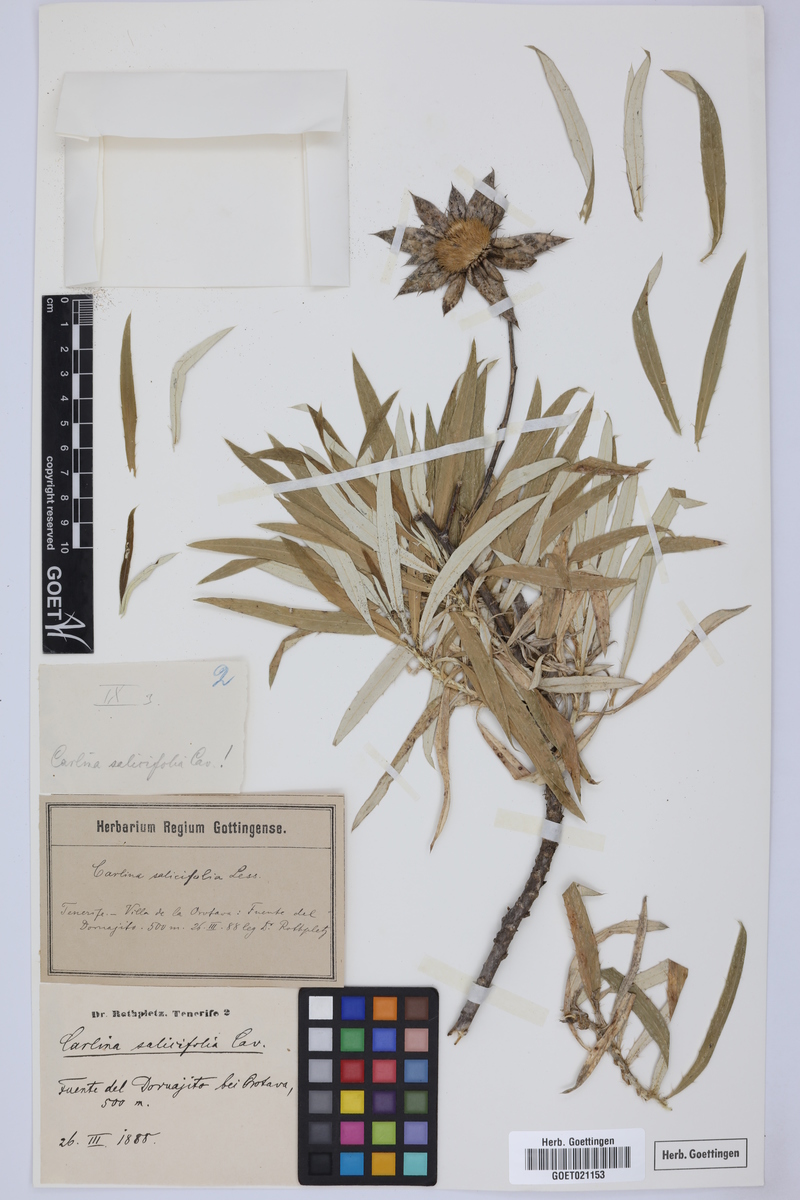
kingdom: Plantae
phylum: Tracheophyta
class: Magnoliopsida
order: Asterales
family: Asteraceae
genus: Carlina
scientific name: Carlina salicifolia
